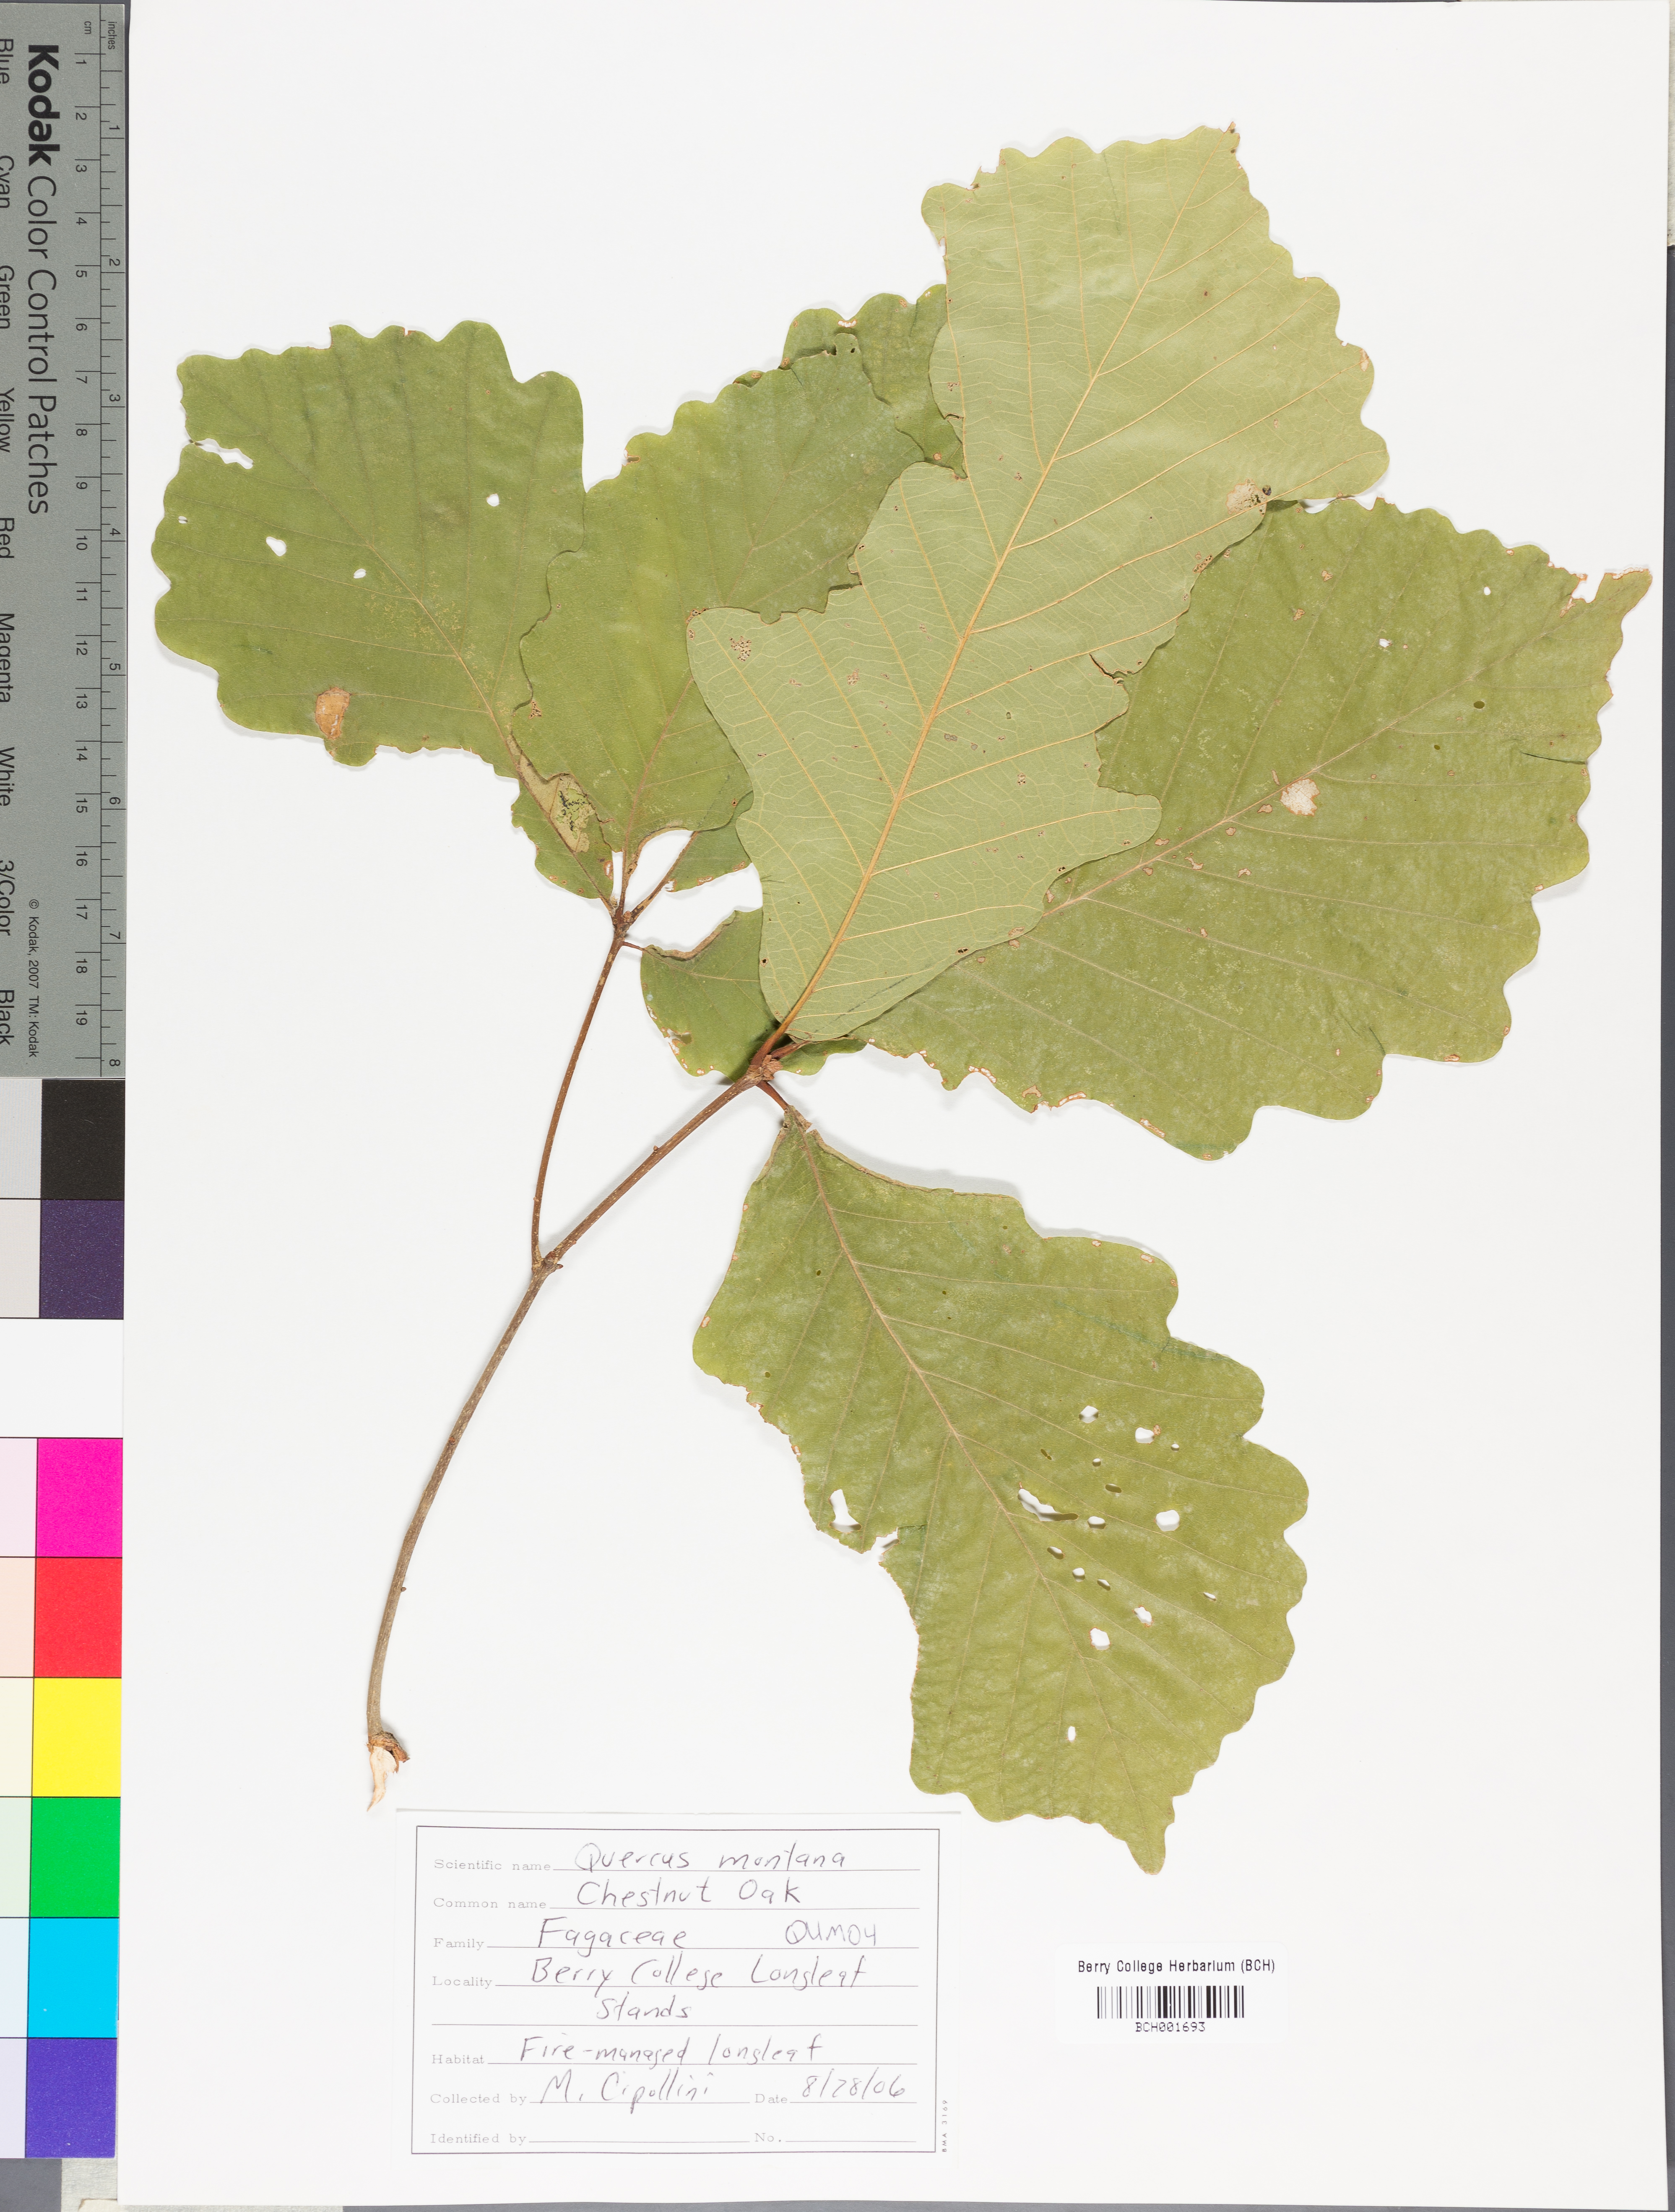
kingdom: Plantae
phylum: Tracheophyta
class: Magnoliopsida
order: Fagales
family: Fagaceae
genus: Quercus
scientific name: Quercus montana
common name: Chestnut oak
